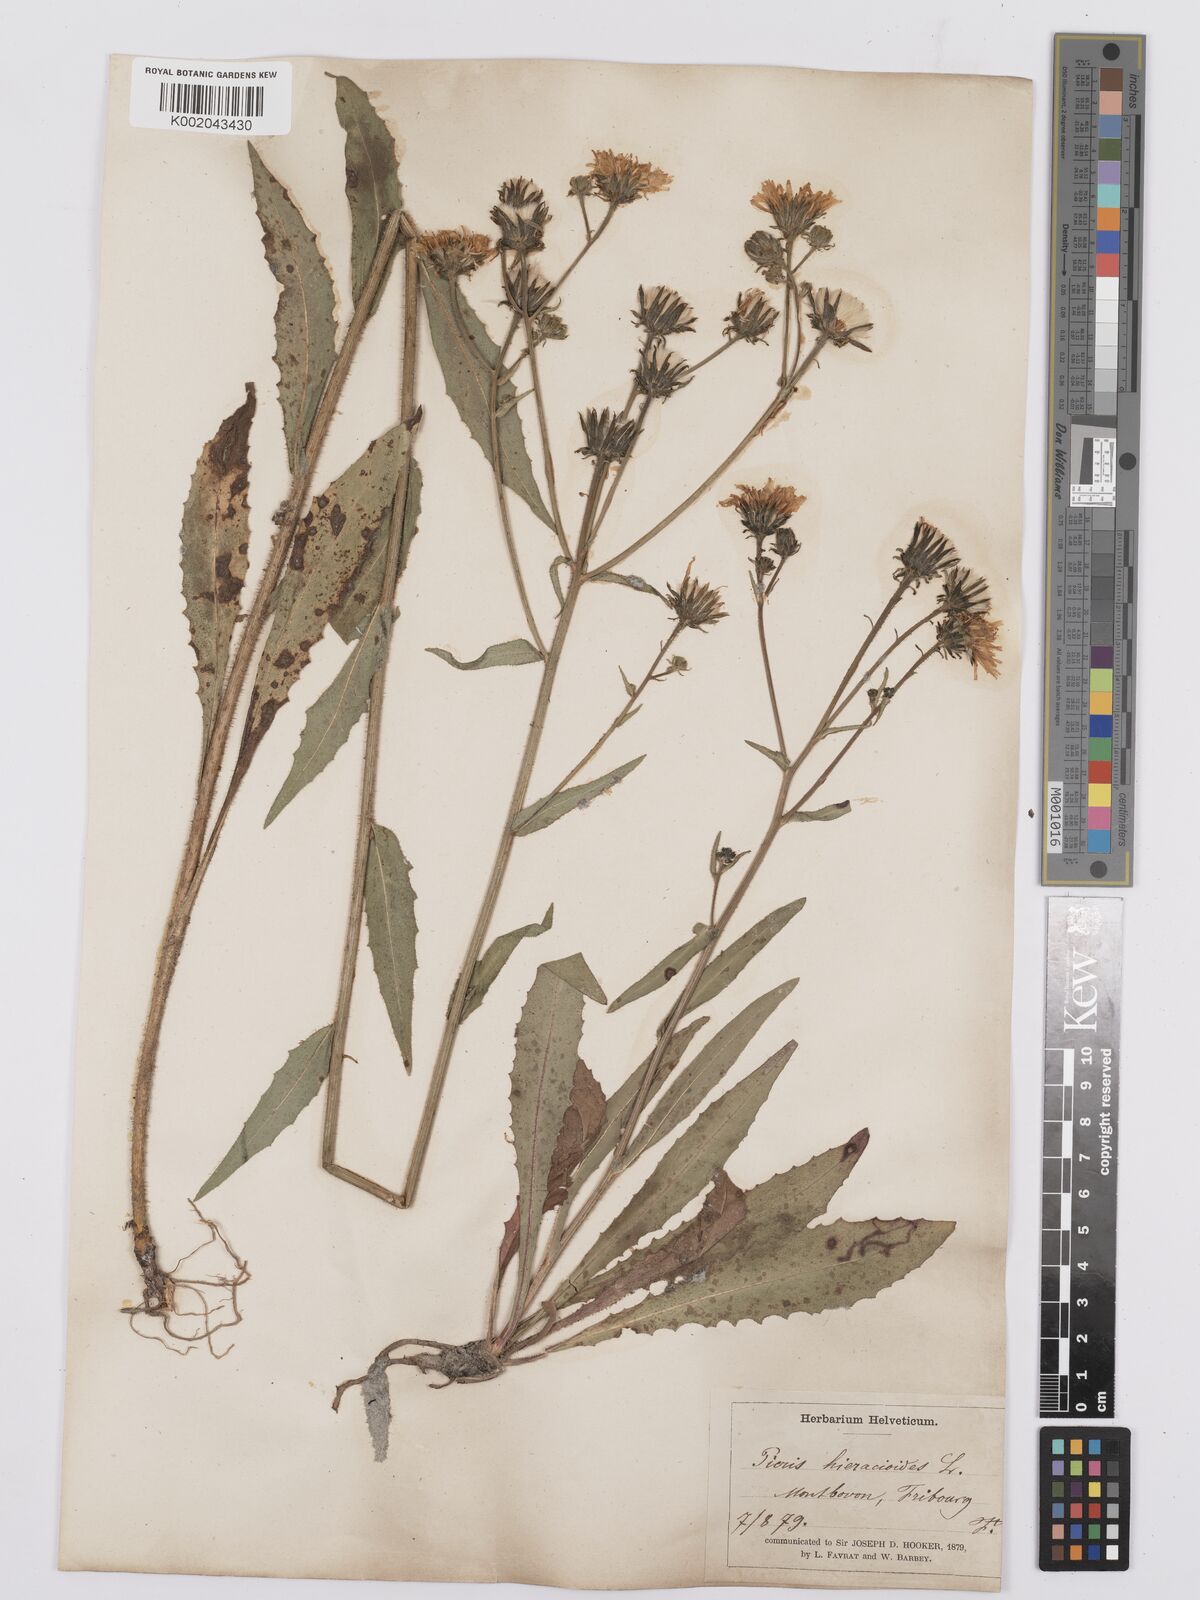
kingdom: Plantae
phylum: Tracheophyta
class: Magnoliopsida
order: Asterales
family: Asteraceae
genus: Picris
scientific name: Picris hieracioides
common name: Hawkweed oxtongue
